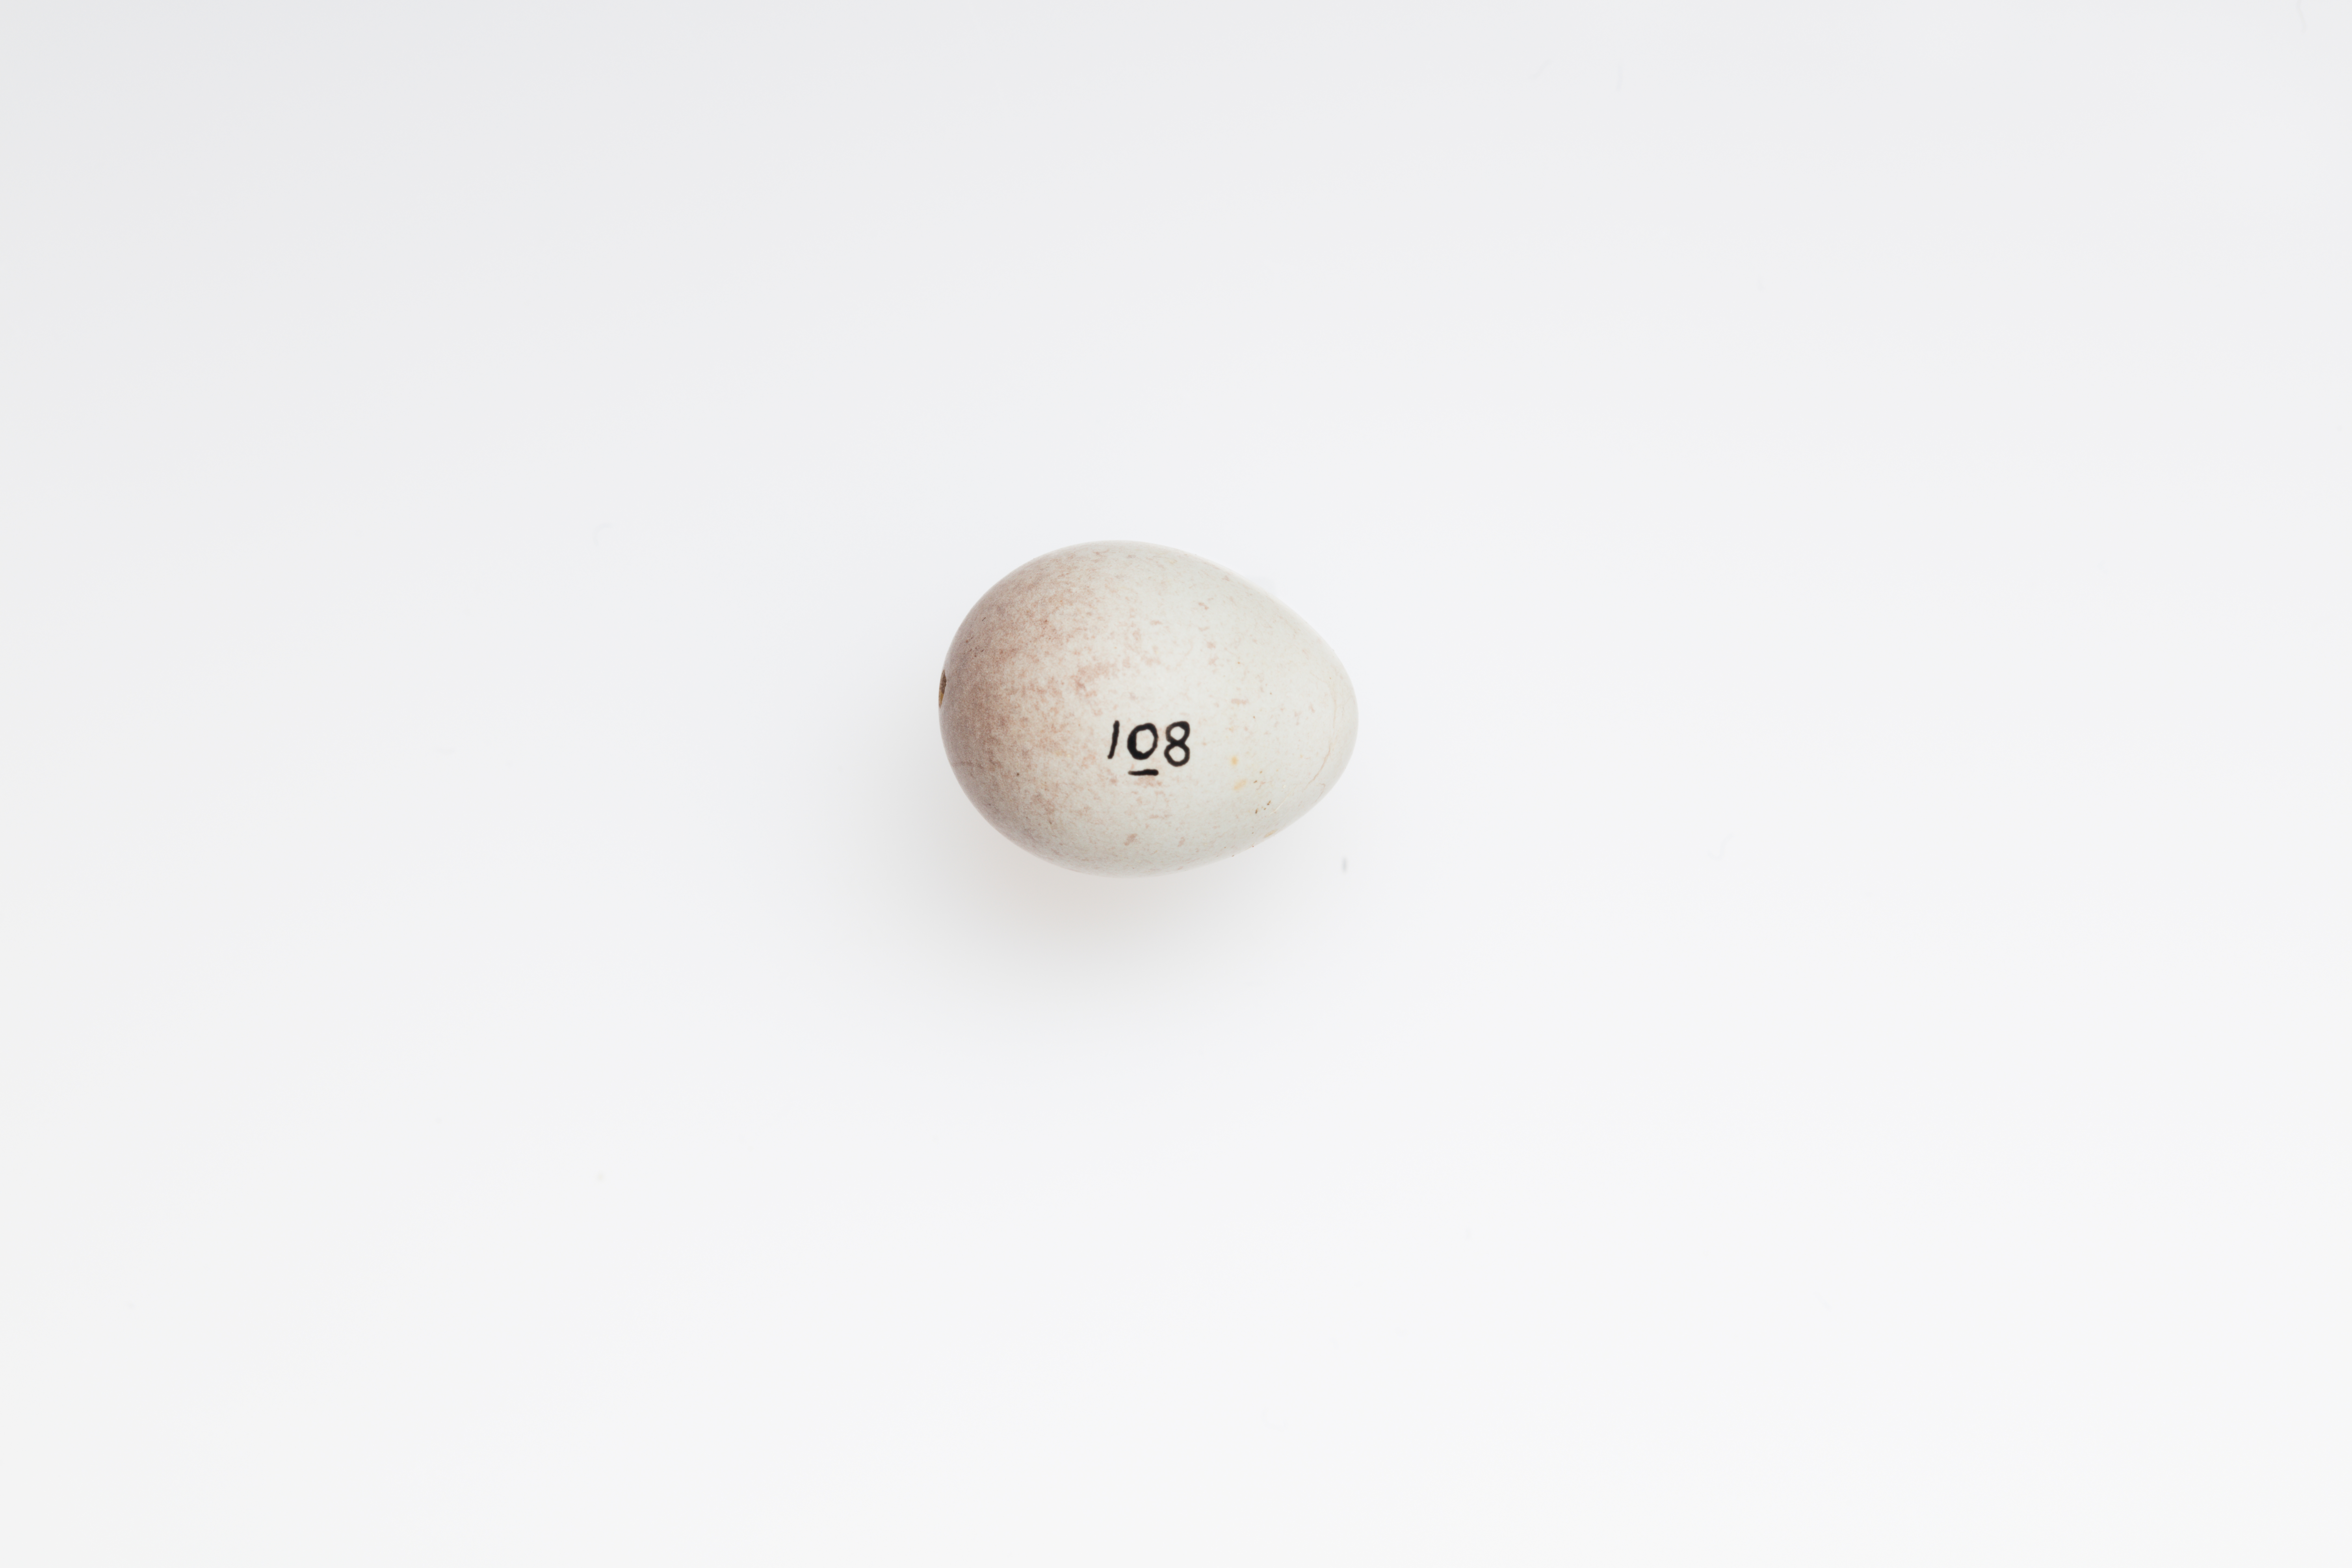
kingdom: Animalia
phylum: Chordata
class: Aves
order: Passeriformes
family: Fringillidae
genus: Acanthis
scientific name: Acanthis flammea
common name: Common redpoll
